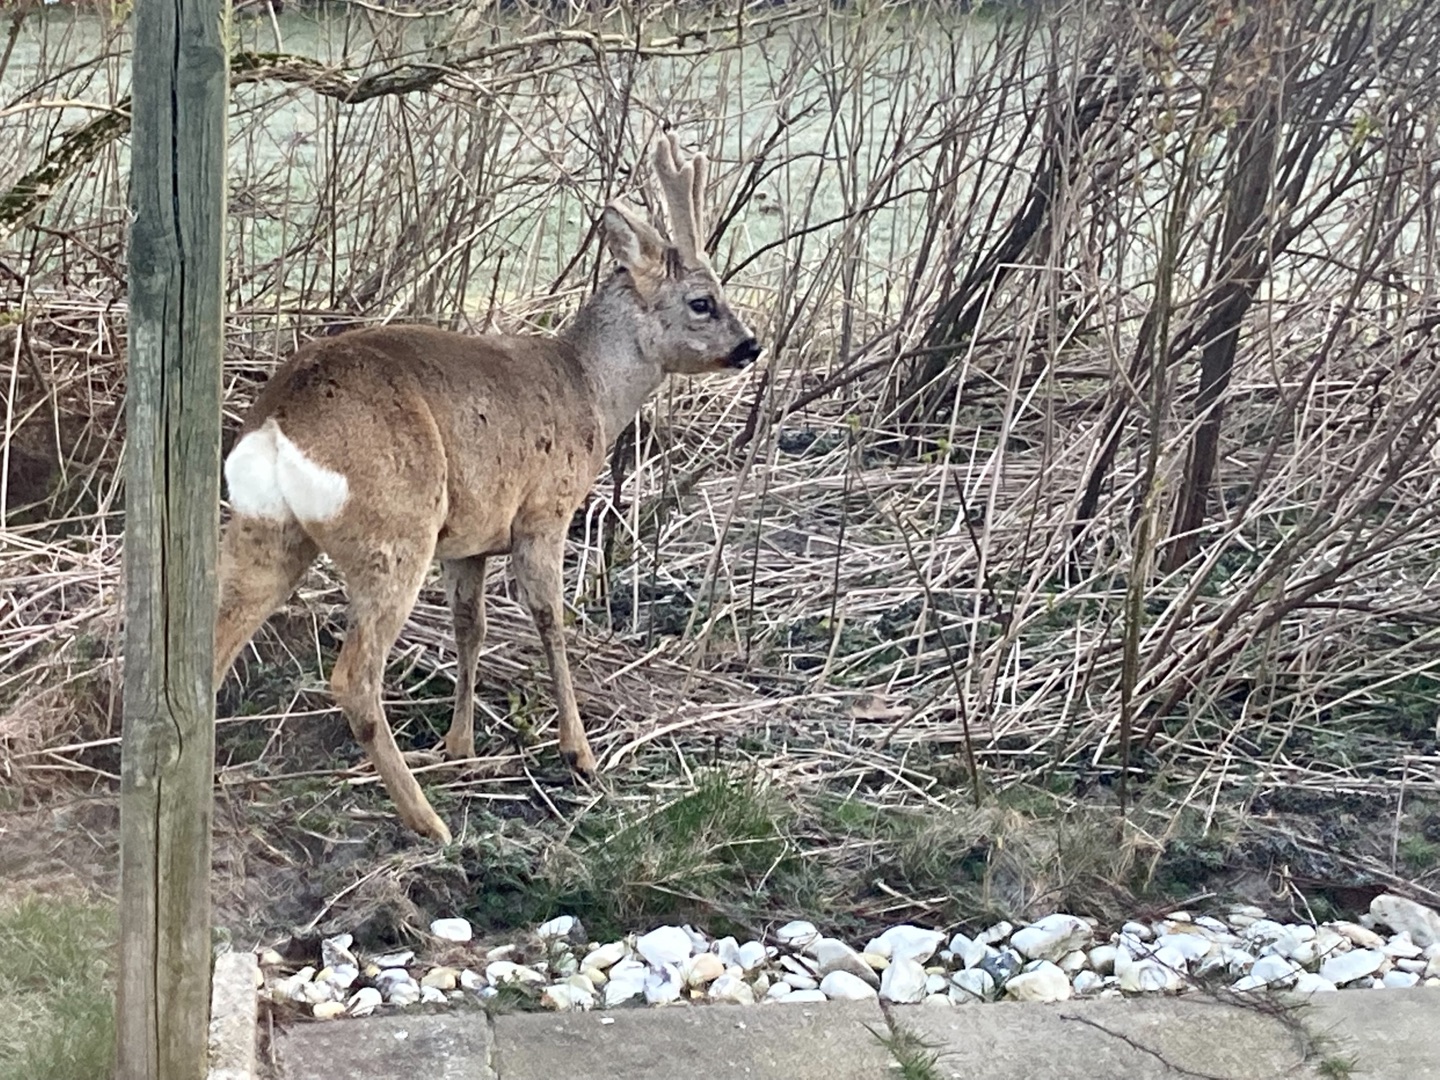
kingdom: Animalia
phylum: Chordata
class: Mammalia
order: Artiodactyla
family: Cervidae
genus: Capreolus
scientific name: Capreolus capreolus
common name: Rådyr
